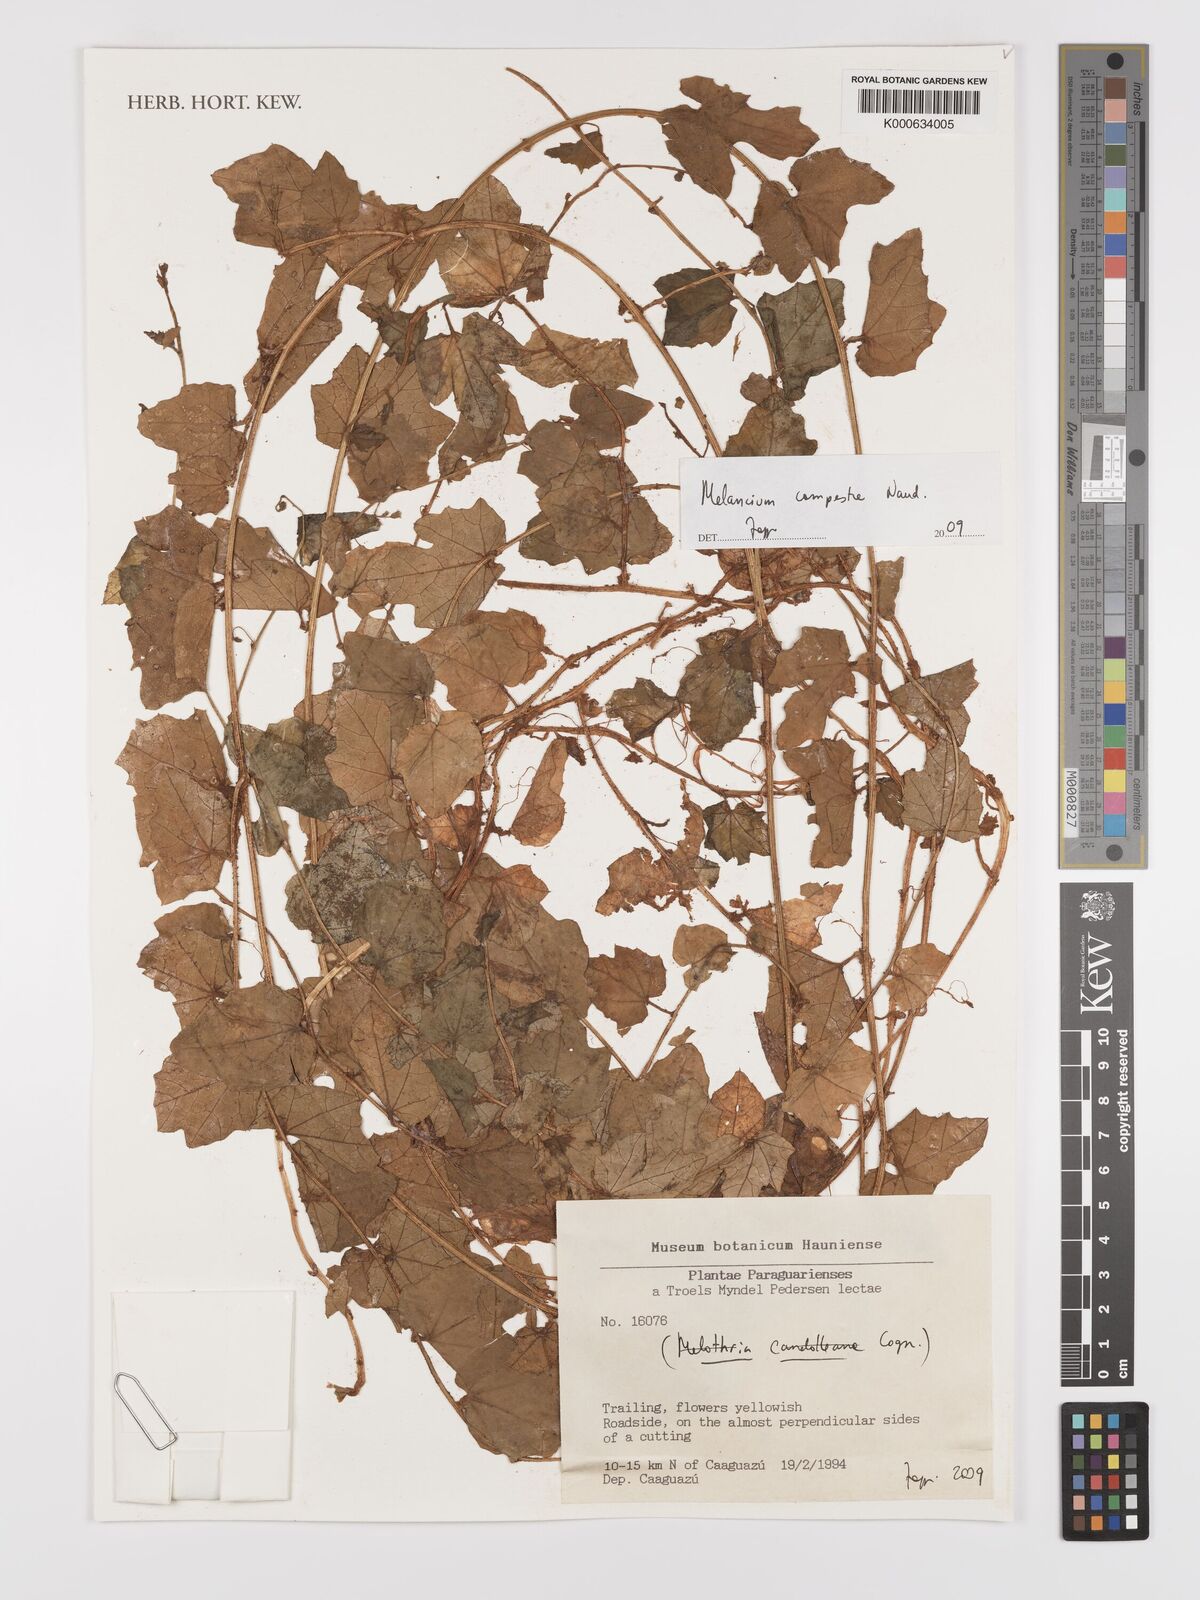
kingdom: Plantae
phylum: Tracheophyta
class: Magnoliopsida
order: Cucurbitales
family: Cucurbitaceae
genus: Melothria
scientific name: Melothria campestris
